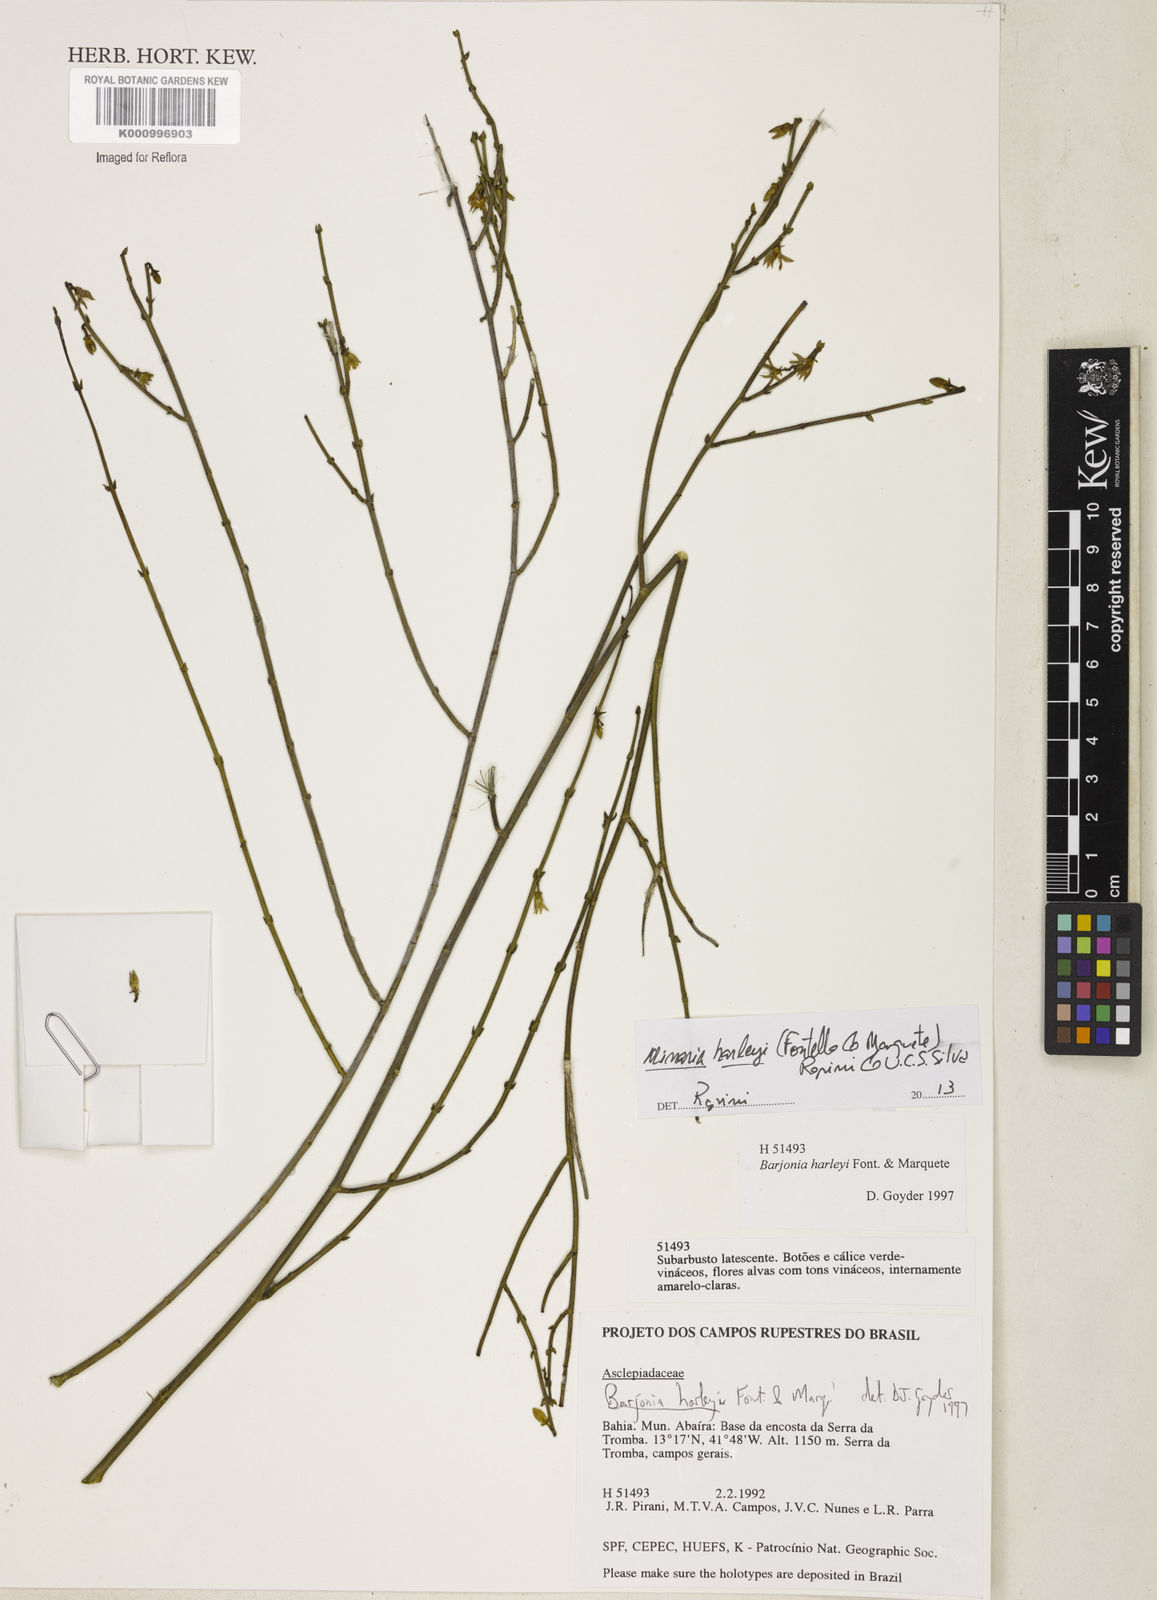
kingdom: Plantae
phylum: Tracheophyta
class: Magnoliopsida
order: Gentianales
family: Apocynaceae
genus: Minaria
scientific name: Minaria cordata
